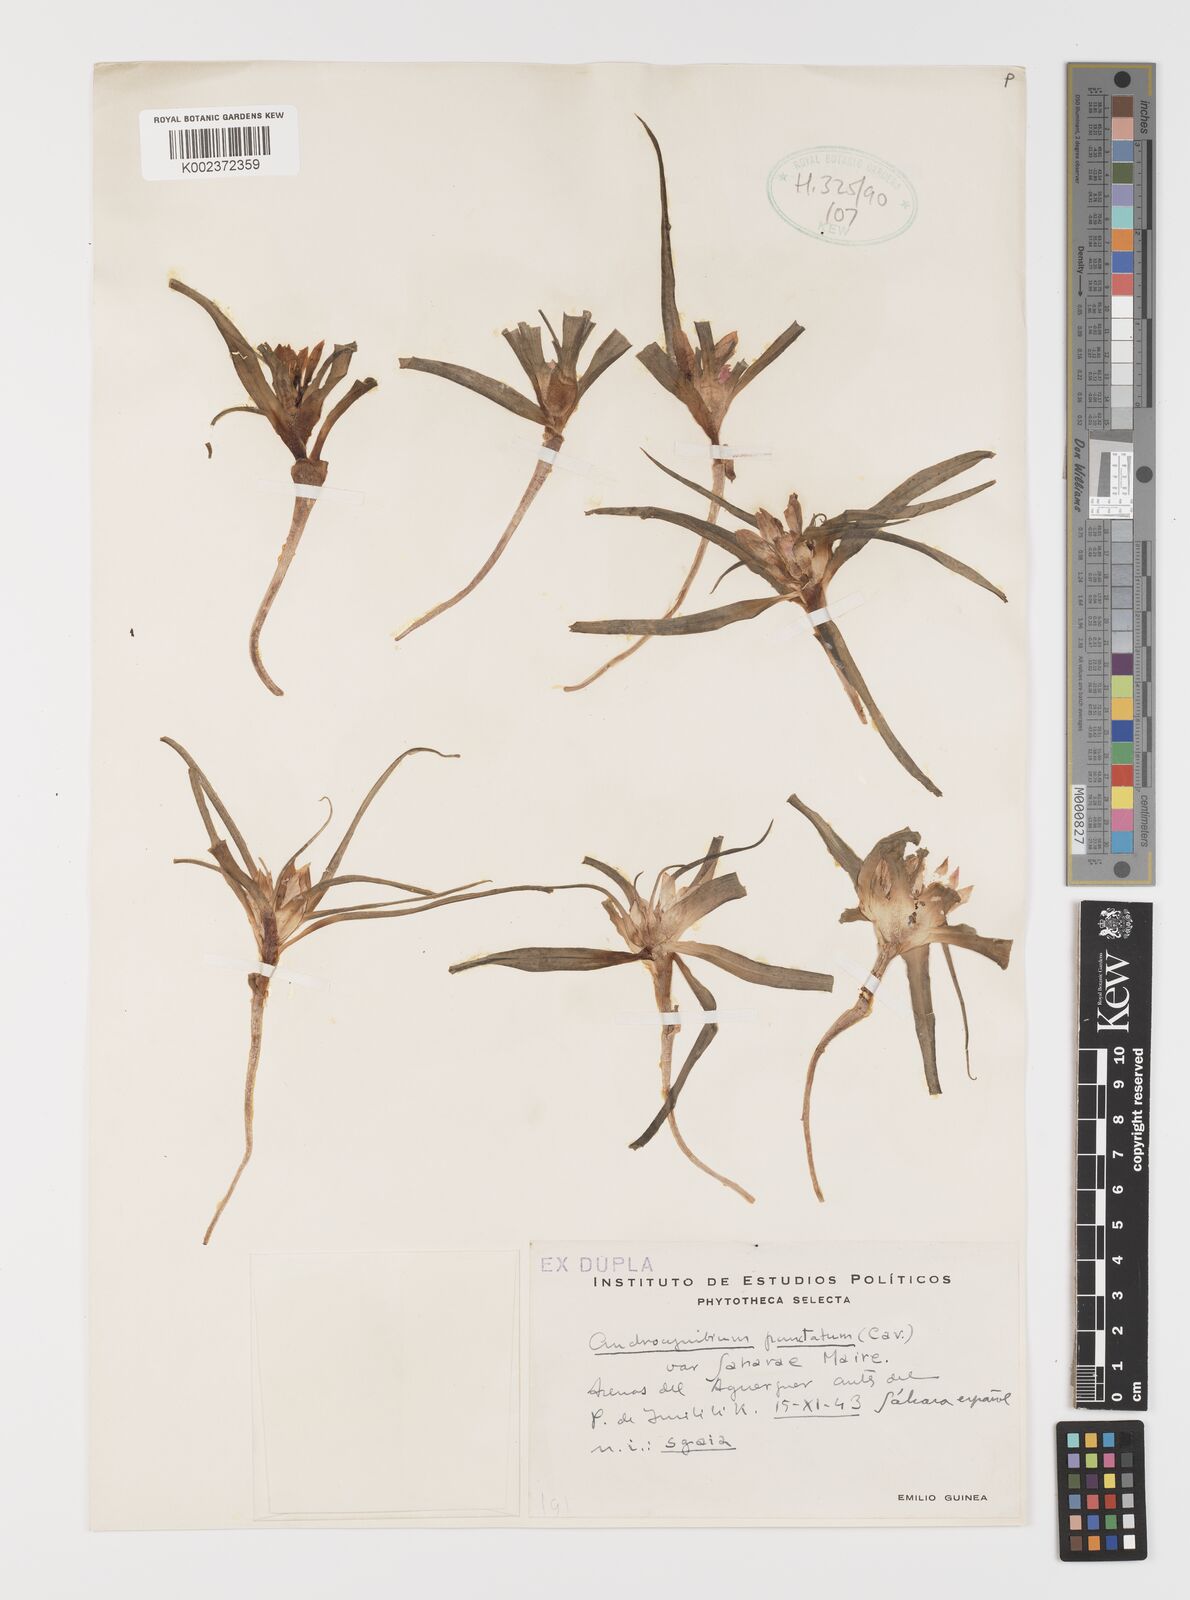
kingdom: Plantae
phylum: Tracheophyta
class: Liliopsida
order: Liliales
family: Colchicaceae
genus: Colchicum
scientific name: Colchicum capense
